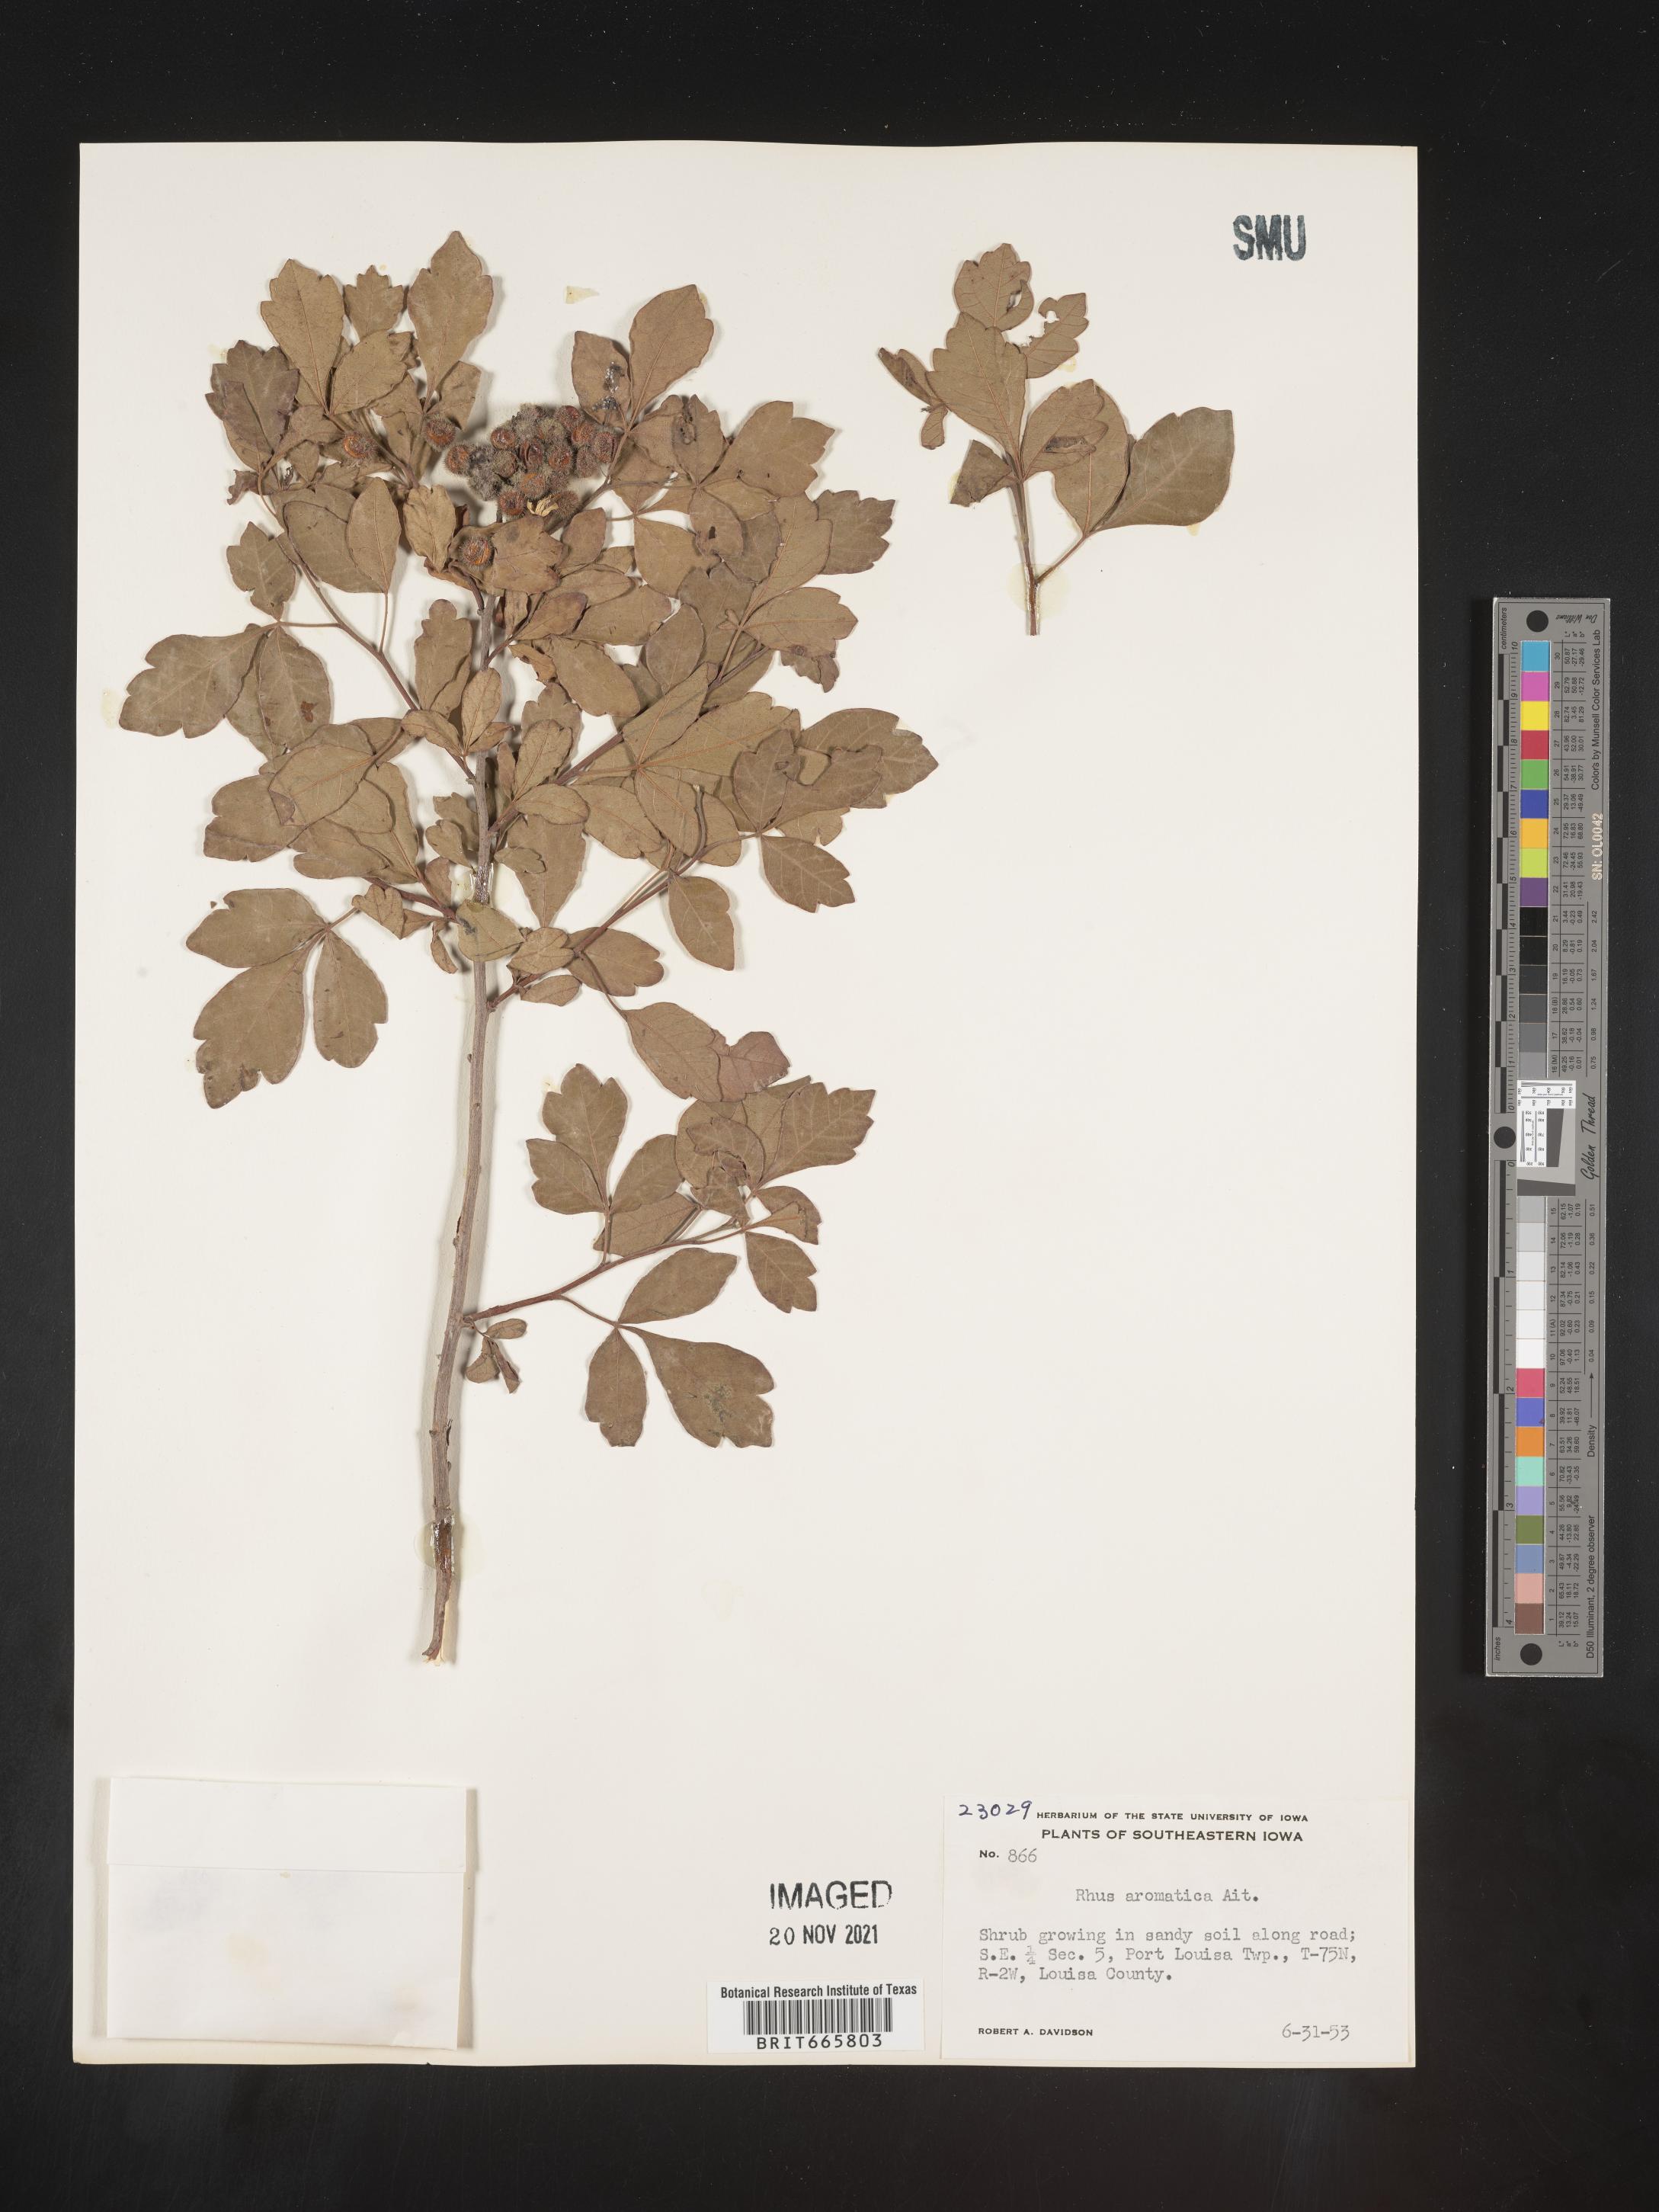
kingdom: Plantae
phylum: Tracheophyta
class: Magnoliopsida
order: Sapindales
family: Anacardiaceae
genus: Rhus
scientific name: Rhus aromatica
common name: Aromatic sumac
